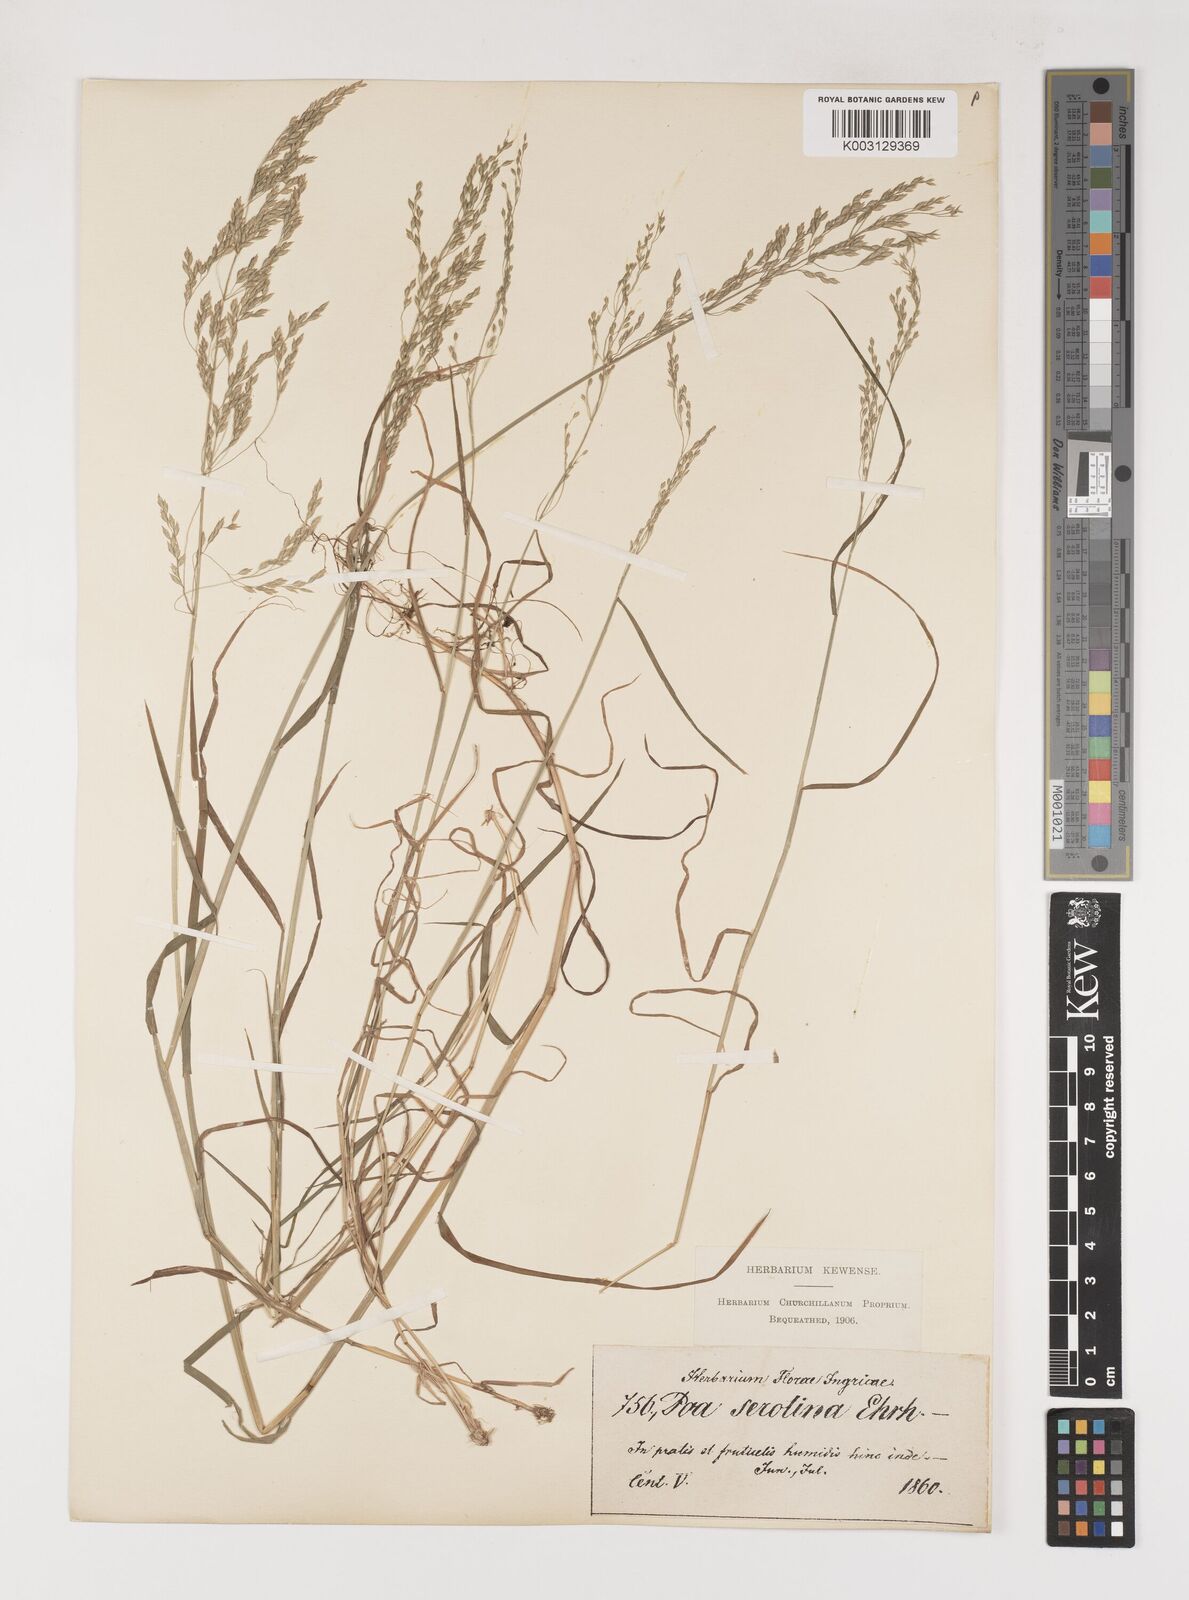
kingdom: Plantae
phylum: Tracheophyta
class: Liliopsida
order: Poales
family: Poaceae
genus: Poa
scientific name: Poa palustris
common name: Swamp meadow-grass
